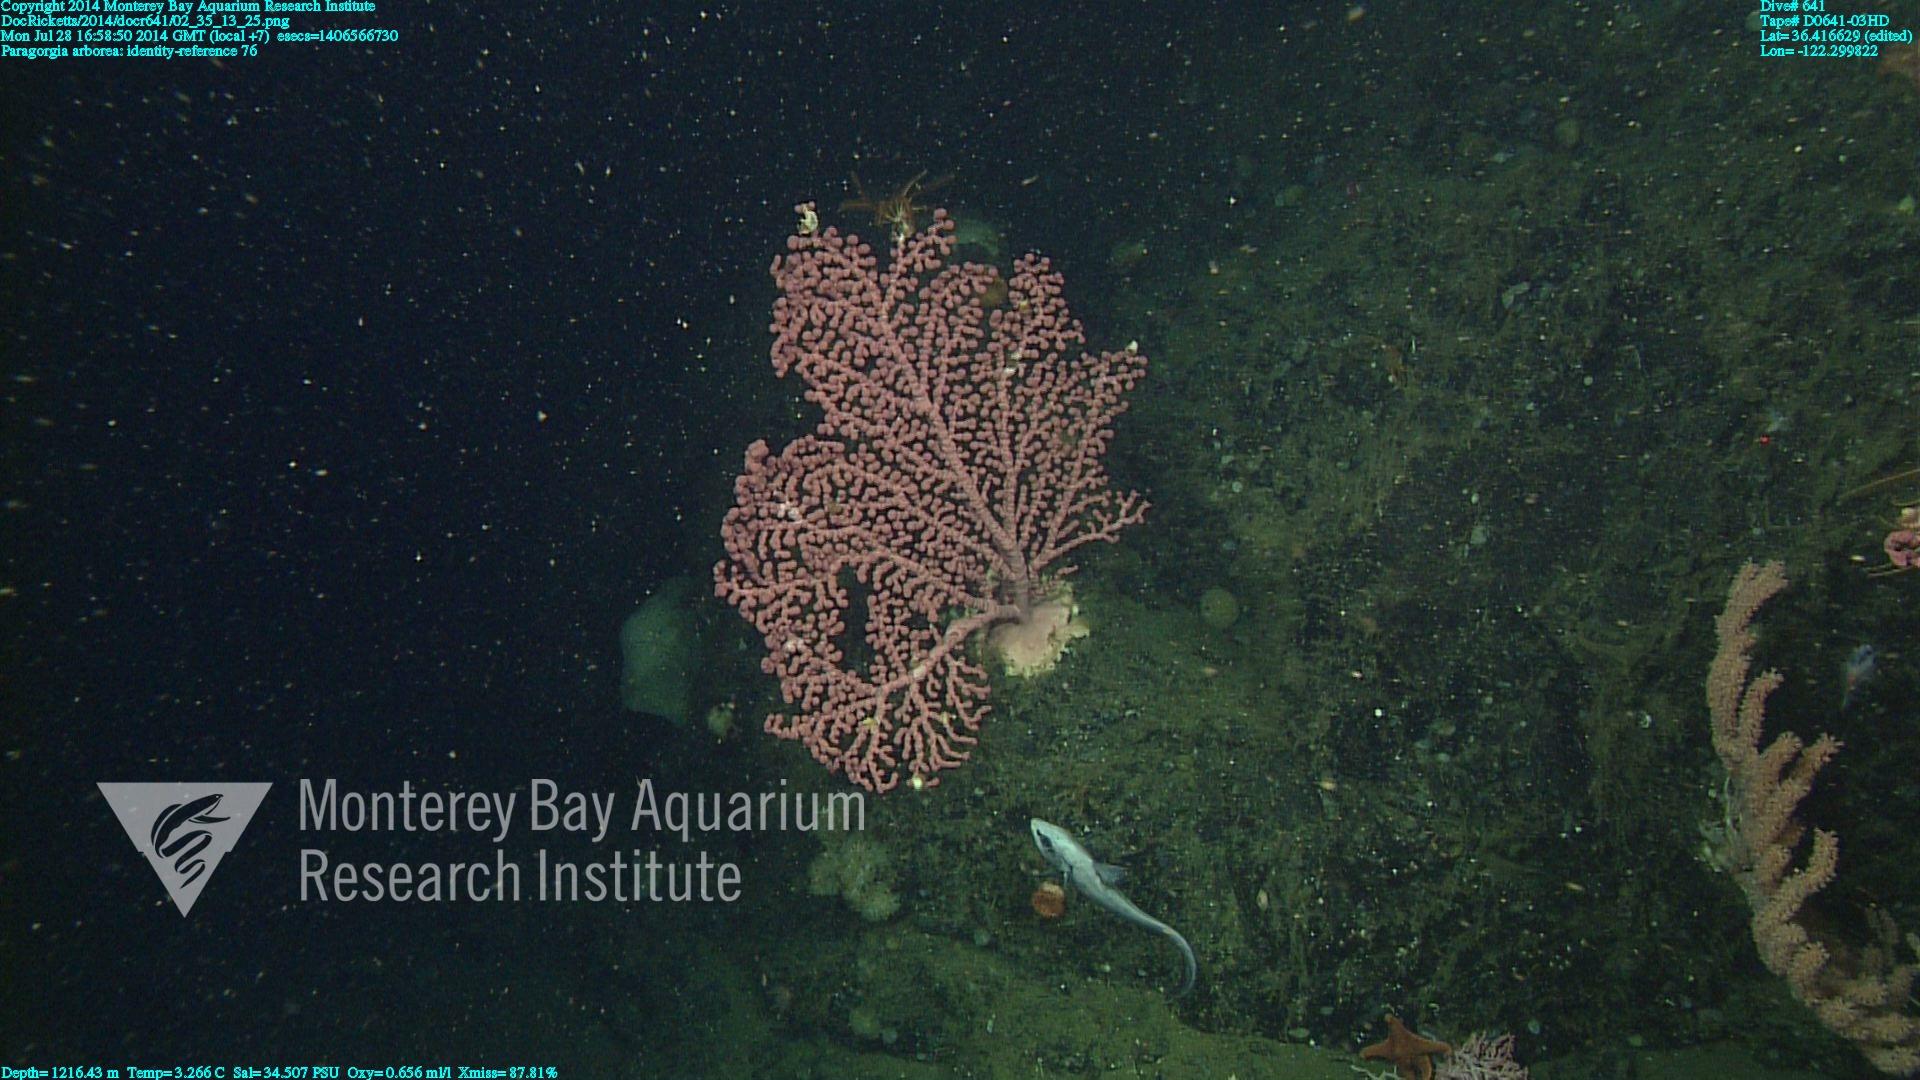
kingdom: Animalia
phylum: Cnidaria
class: Anthozoa
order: Scleralcyonacea
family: Coralliidae
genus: Paragorgia
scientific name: Paragorgia arborea
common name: Bubble gum coral
